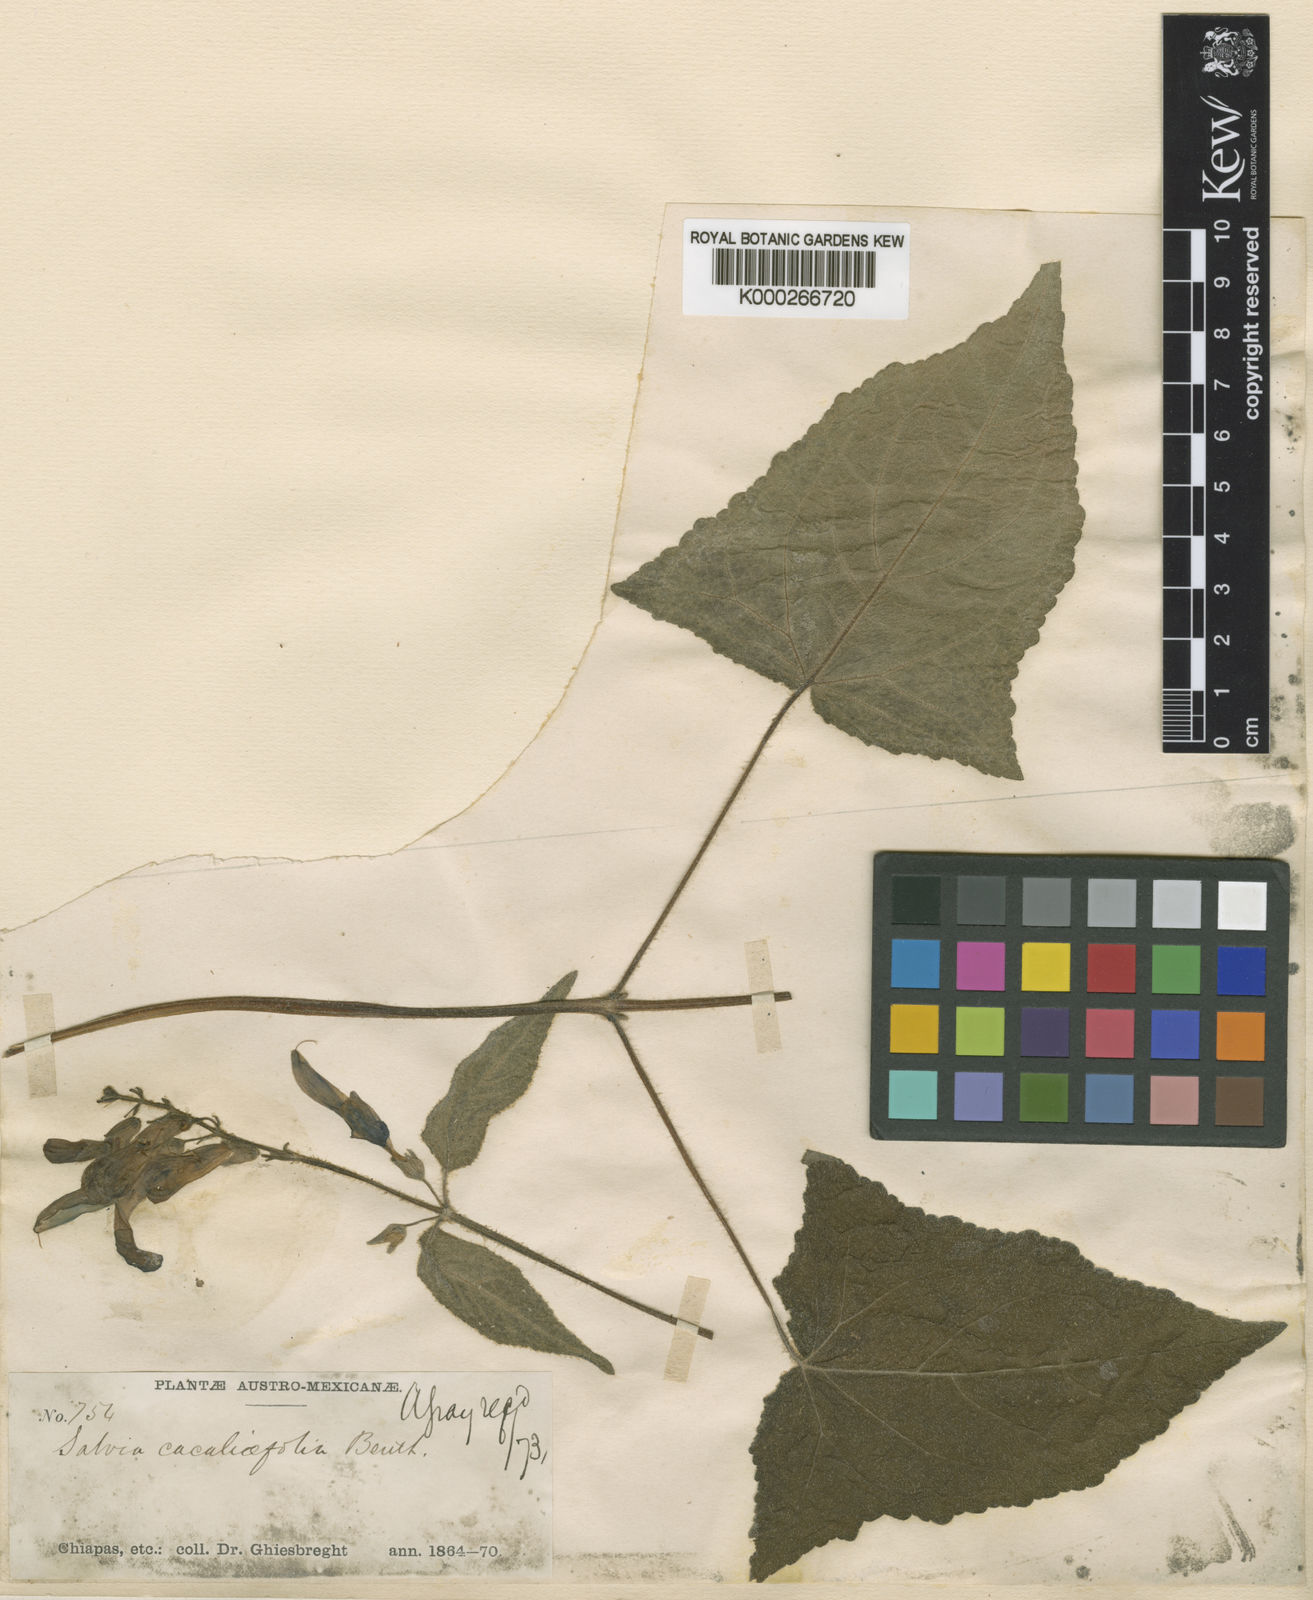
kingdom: Plantae
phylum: Tracheophyta
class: Magnoliopsida
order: Lamiales
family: Lamiaceae
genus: Salvia
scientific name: Salvia vitifolia
